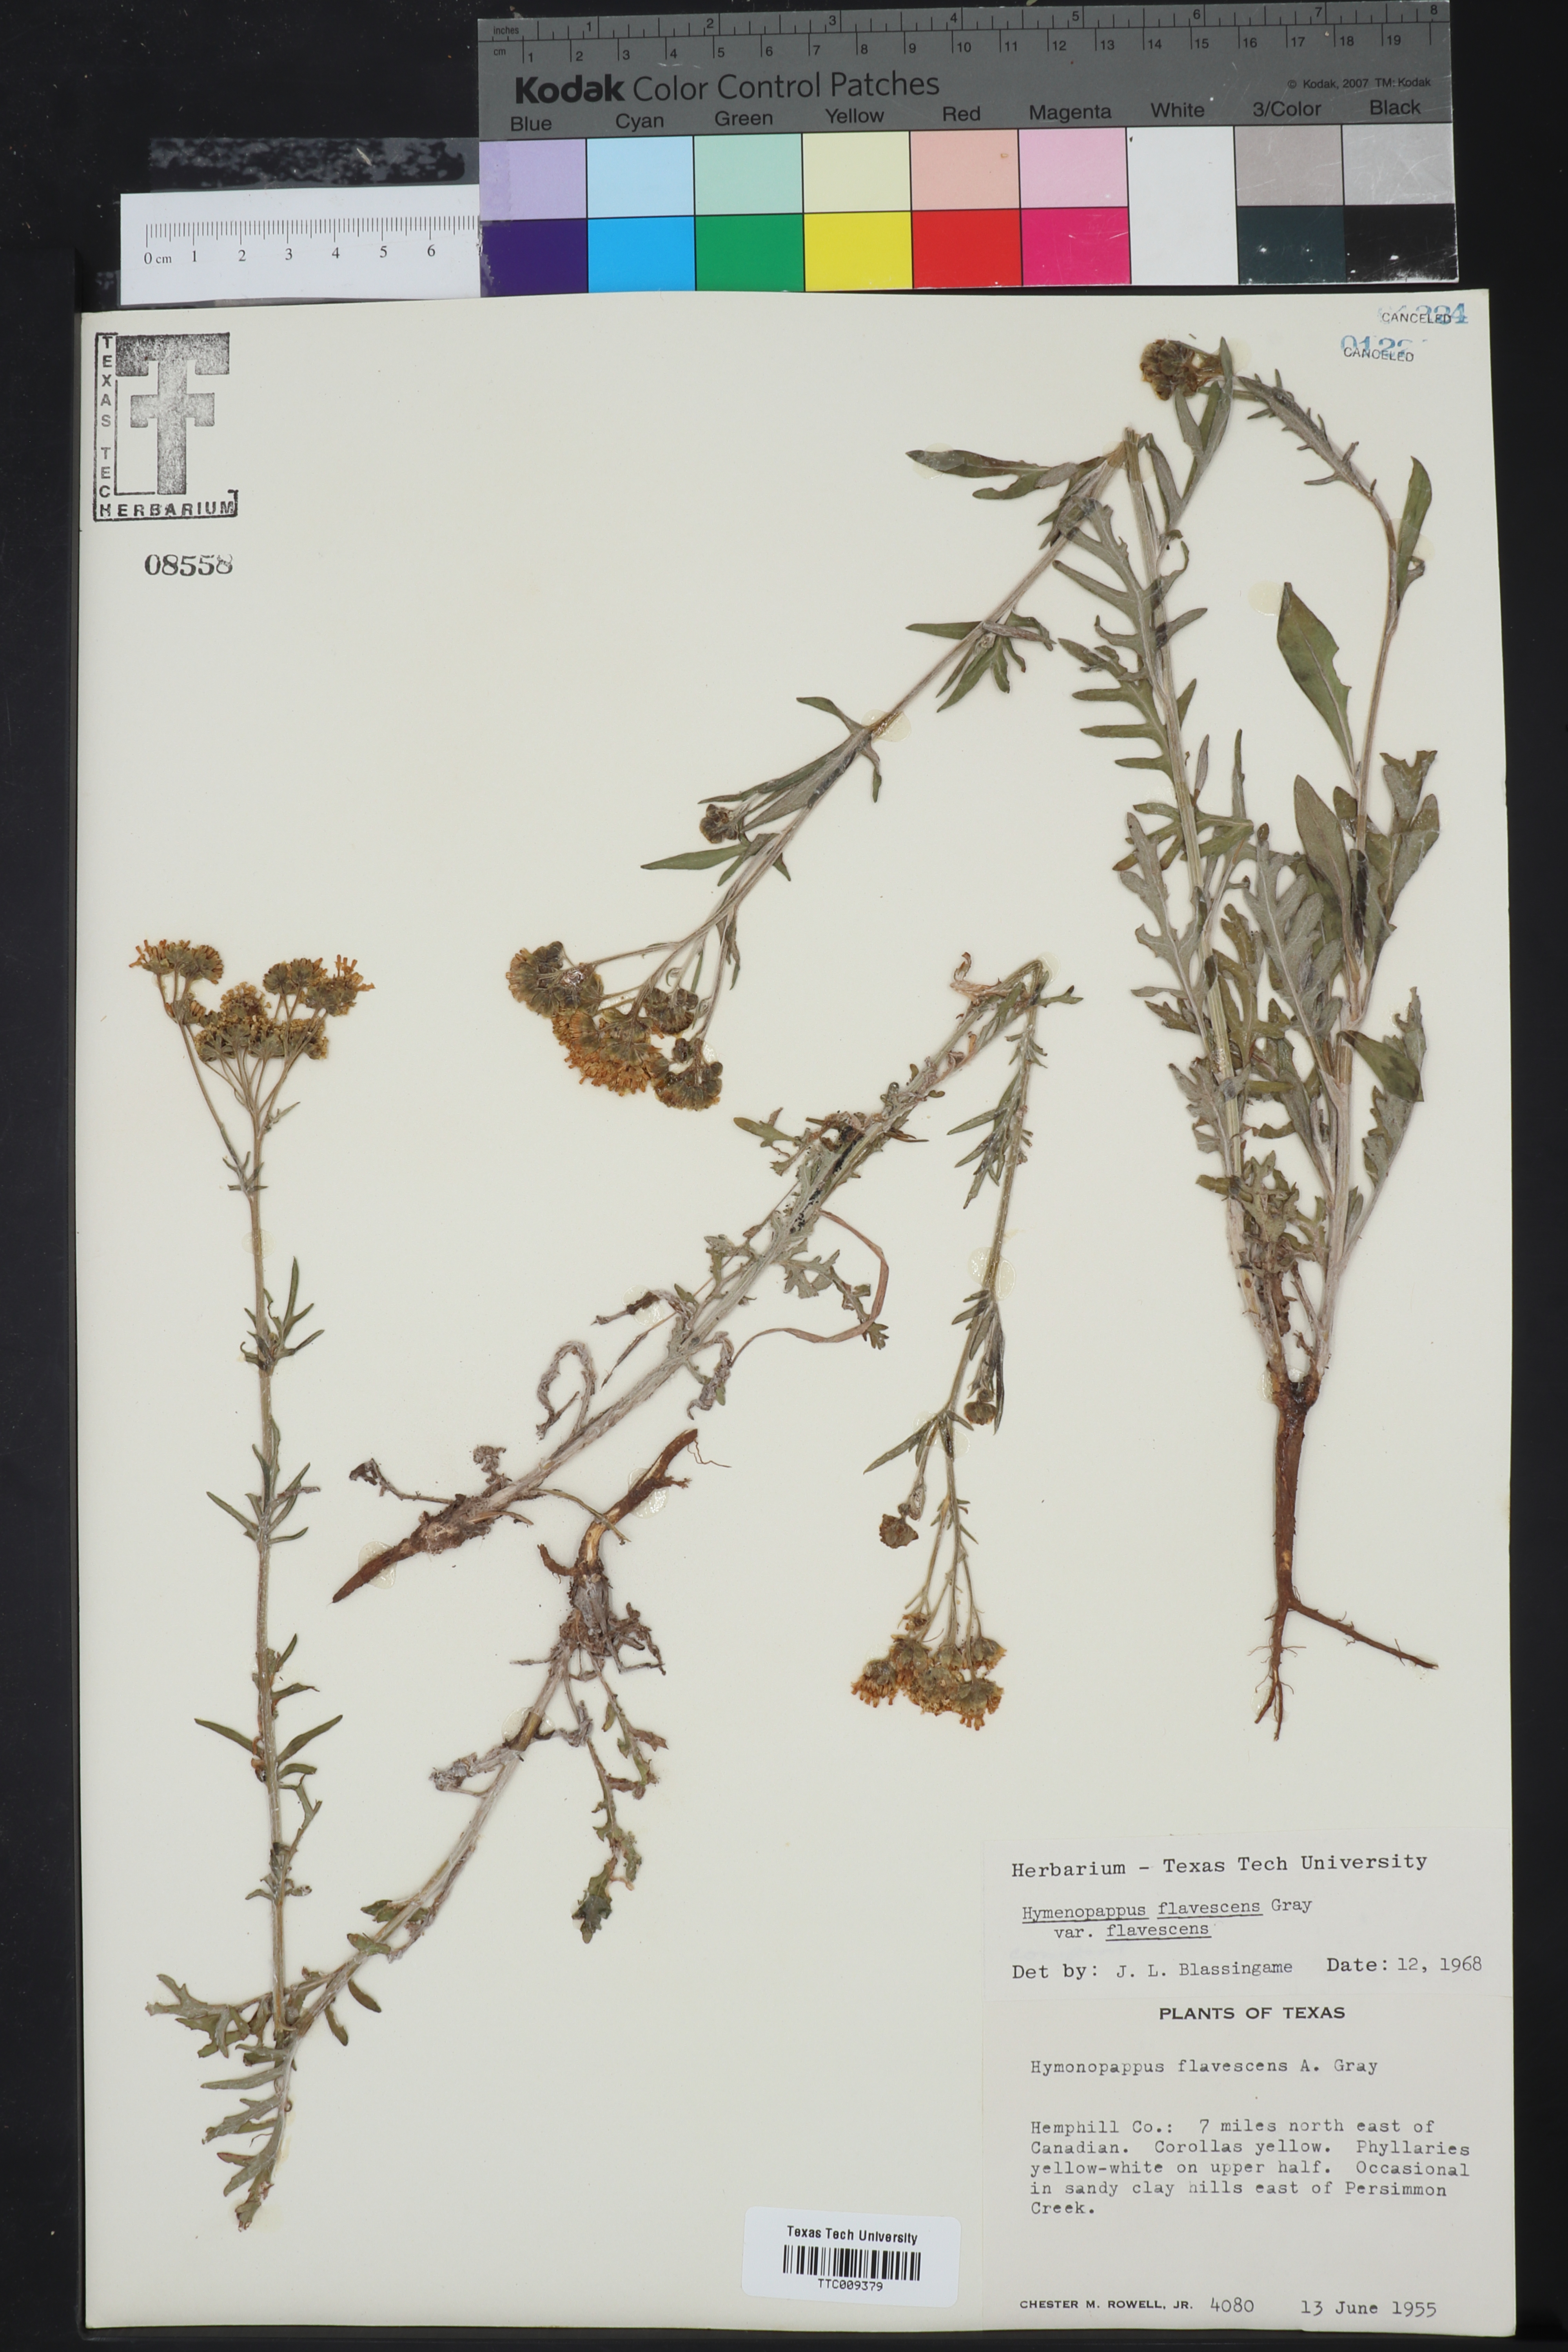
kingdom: Plantae
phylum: Tracheophyta
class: Magnoliopsida
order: Asterales
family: Asteraceae
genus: Hymenopappus
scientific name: Hymenopappus flavescens
